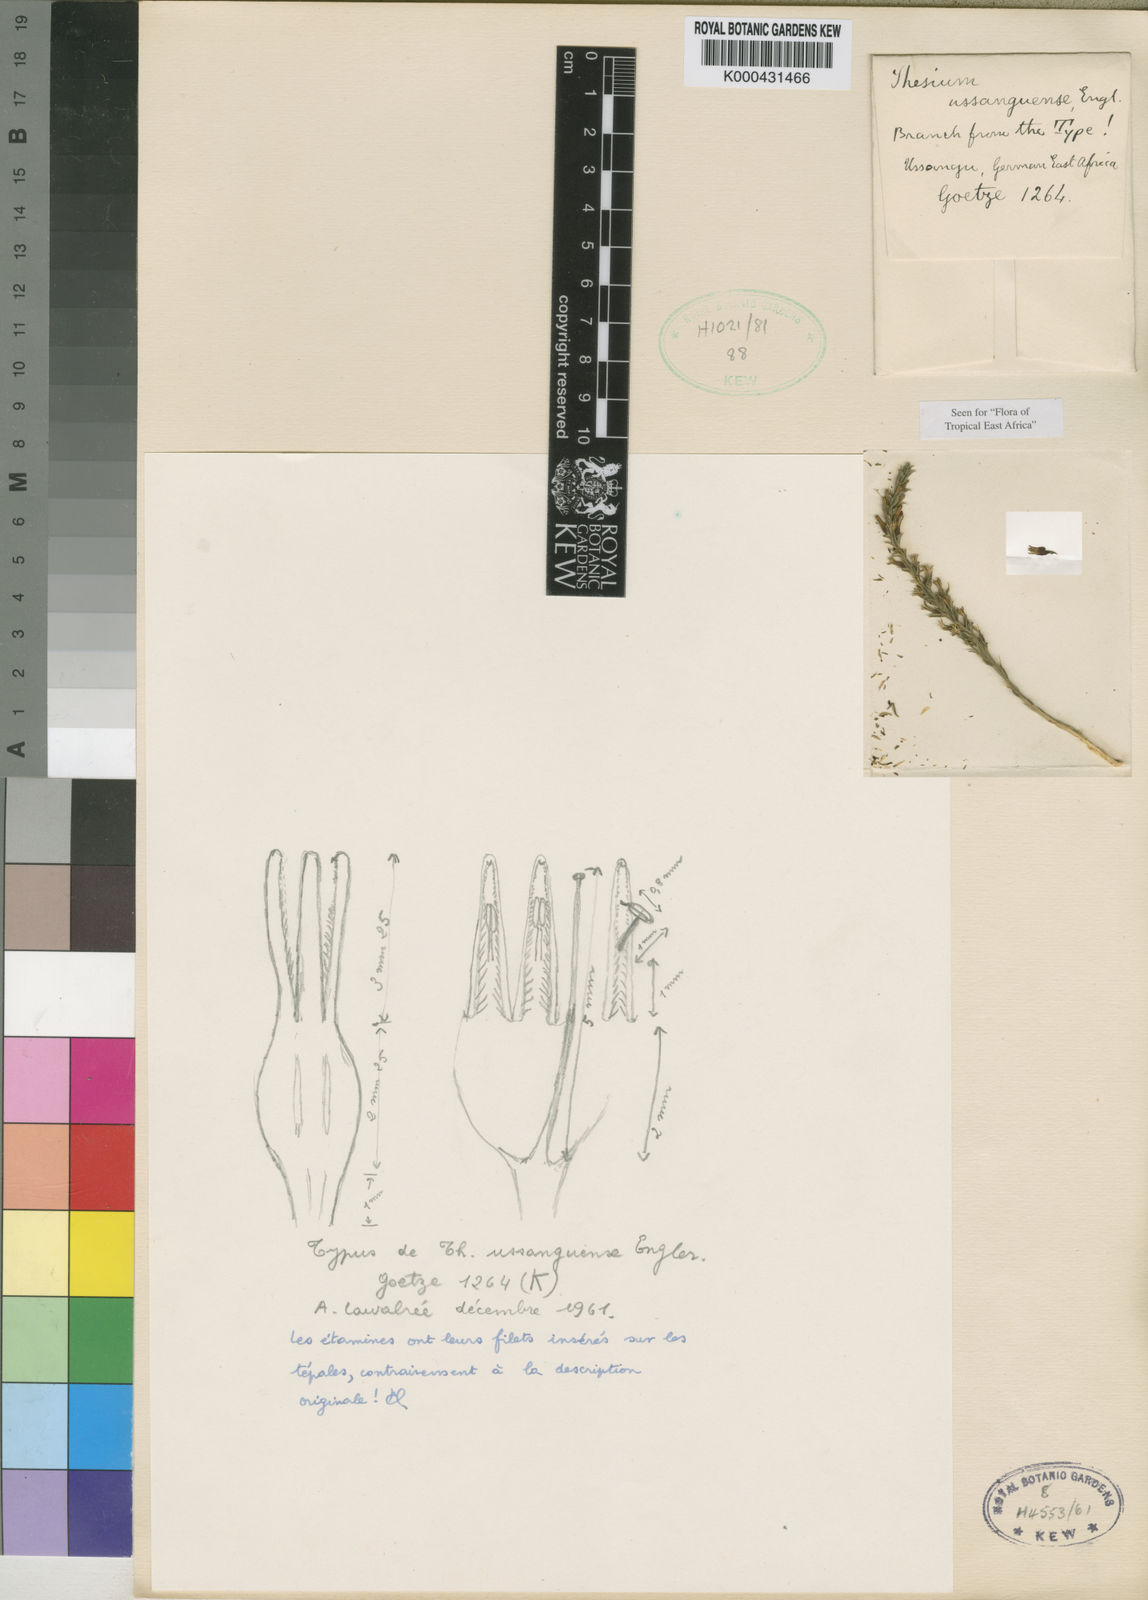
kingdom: Plantae
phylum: Tracheophyta
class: Magnoliopsida
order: Santalales
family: Thesiaceae
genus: Thesium
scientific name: Thesium
